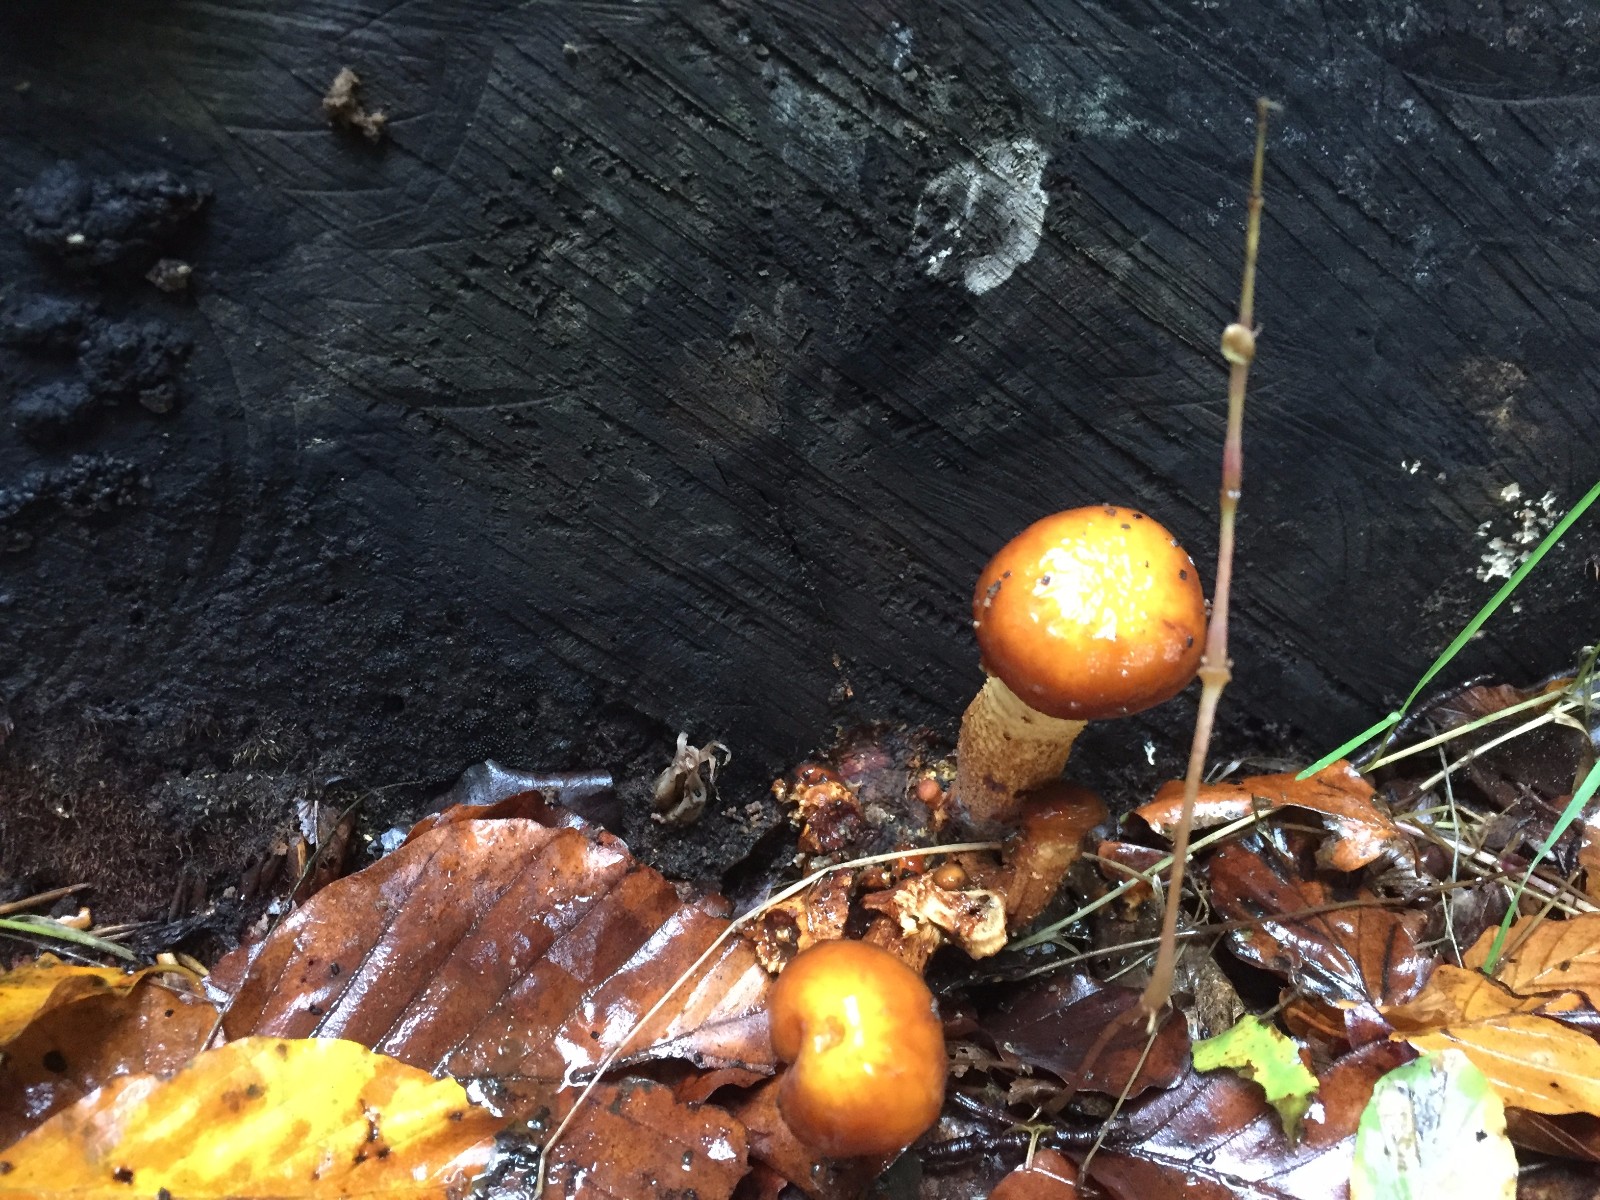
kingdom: Fungi
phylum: Basidiomycota
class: Agaricomycetes
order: Agaricales
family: Strophariaceae
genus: Pholiota
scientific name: Pholiota adiposa
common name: højtsiddende skælhat
